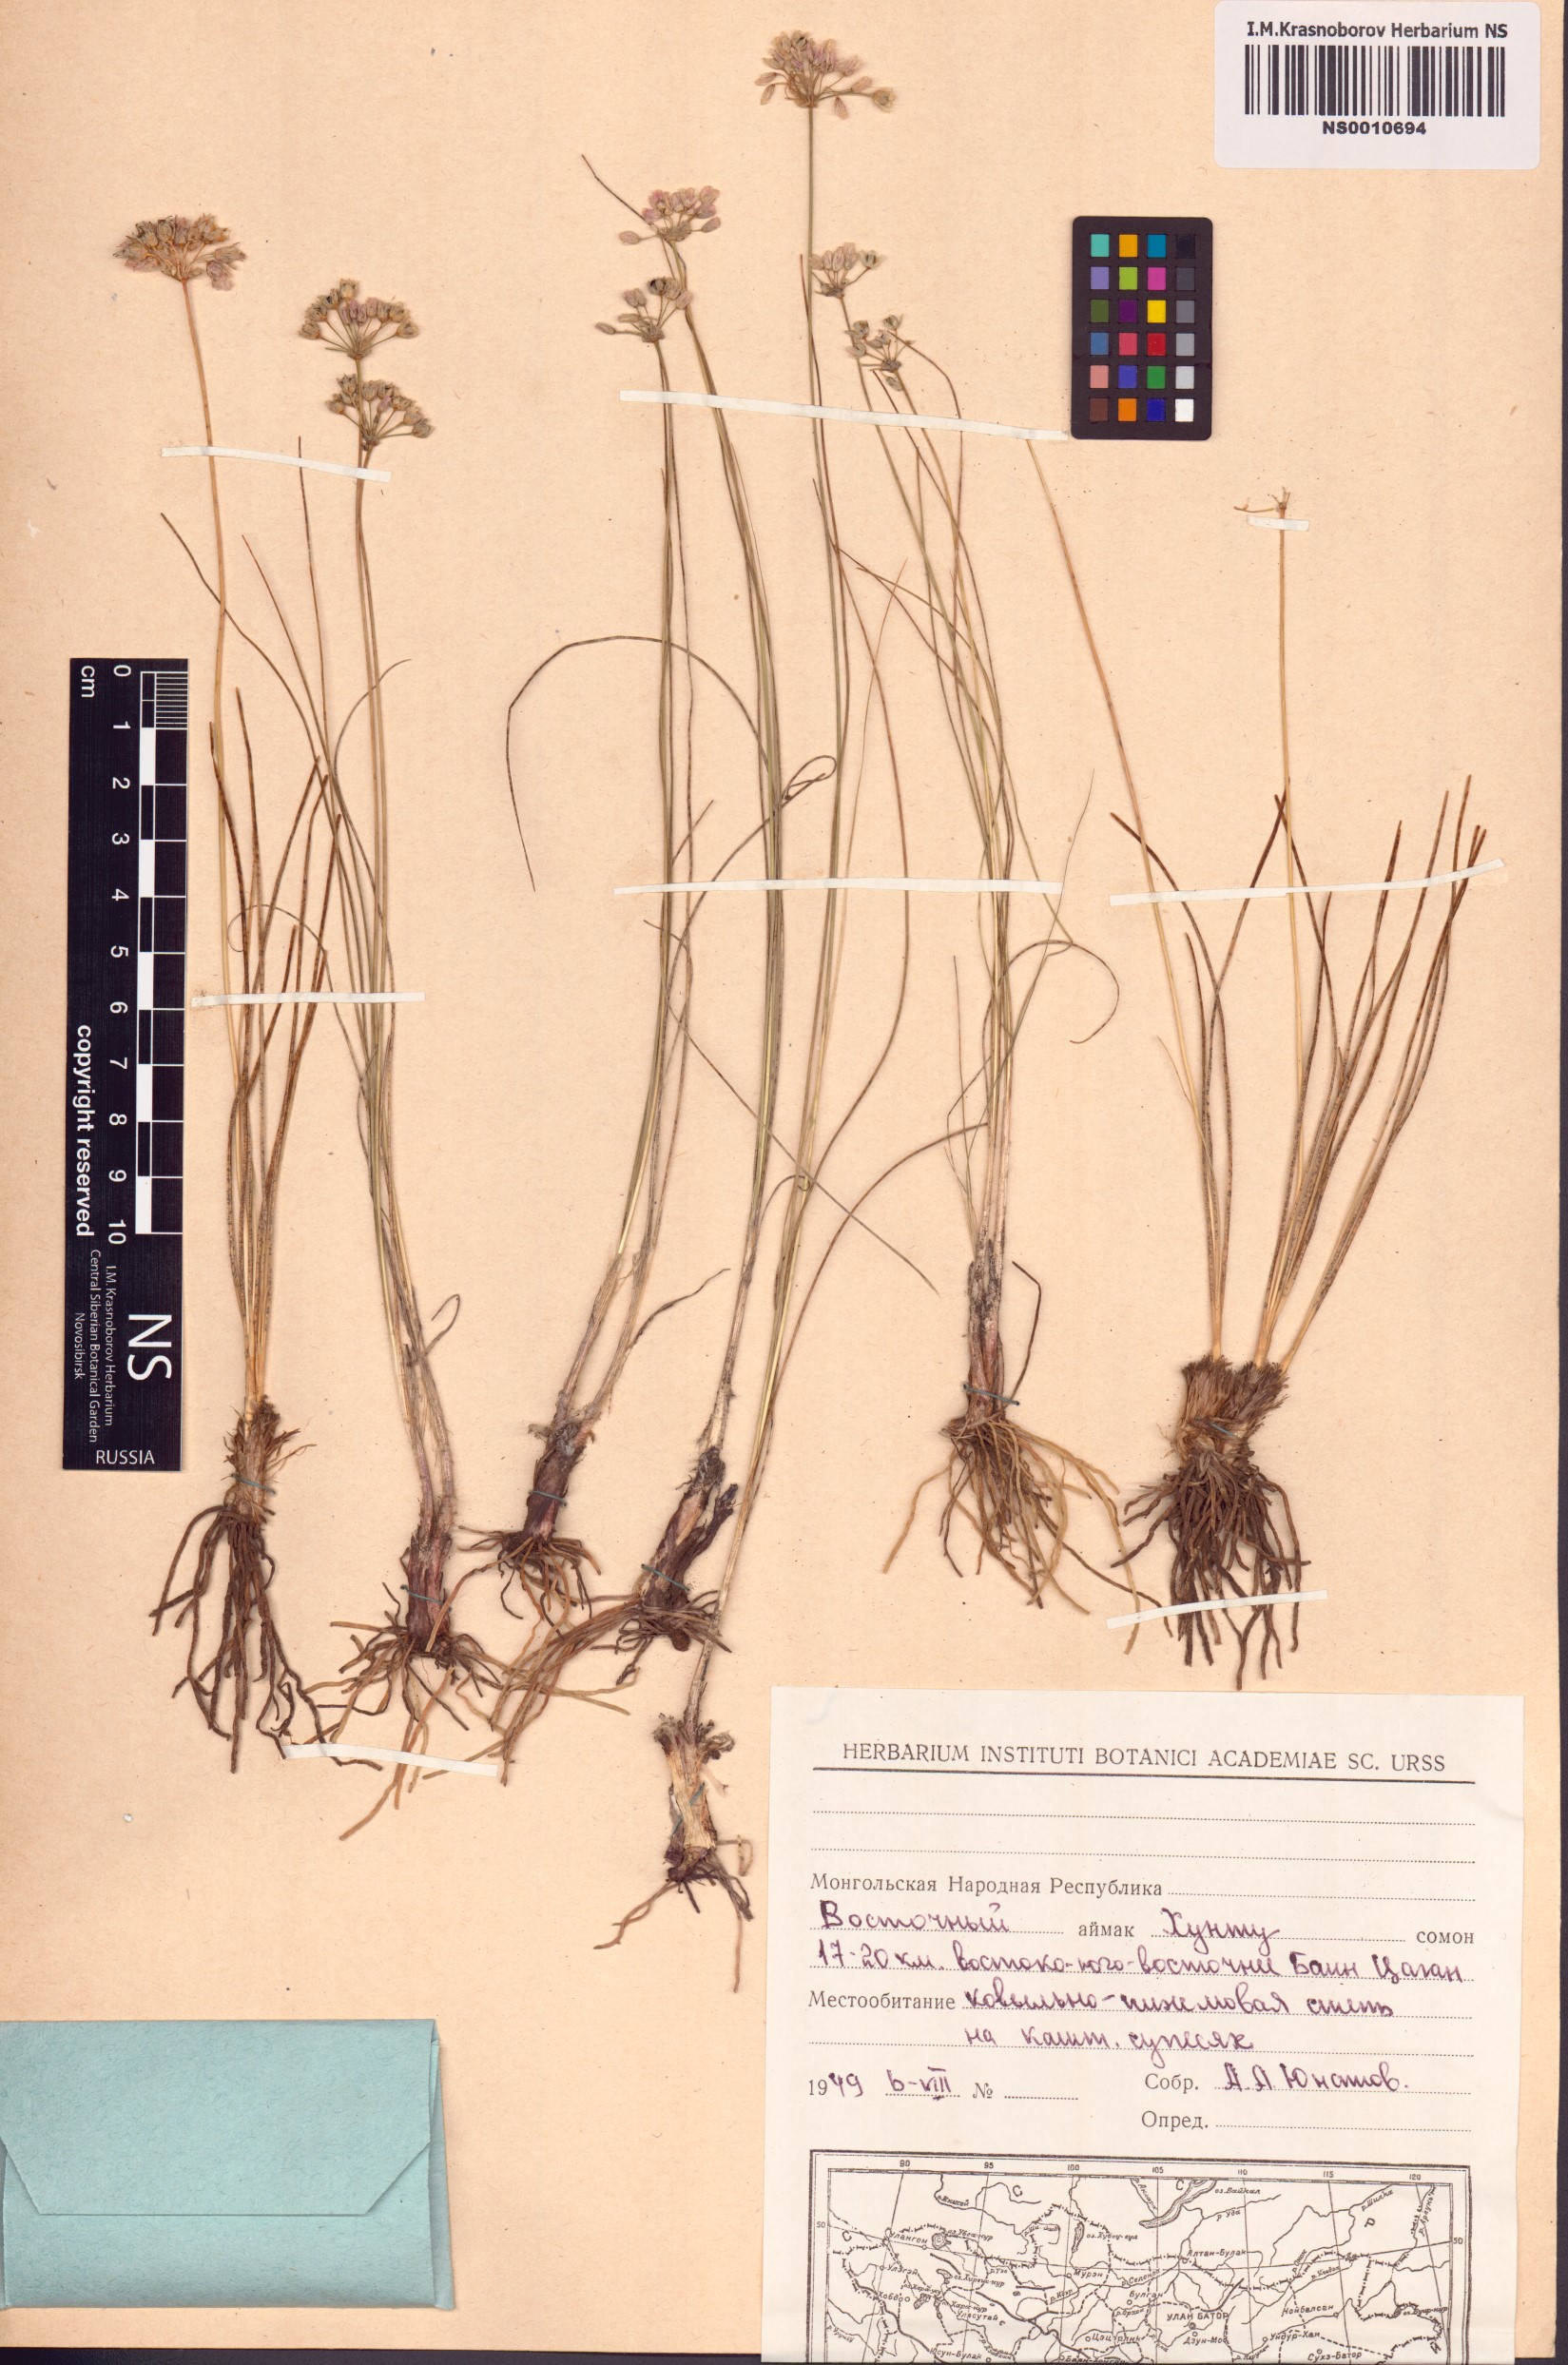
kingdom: Plantae
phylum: Tracheophyta
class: Liliopsida
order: Asparagales
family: Amaryllidaceae
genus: Allium
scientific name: Allium
